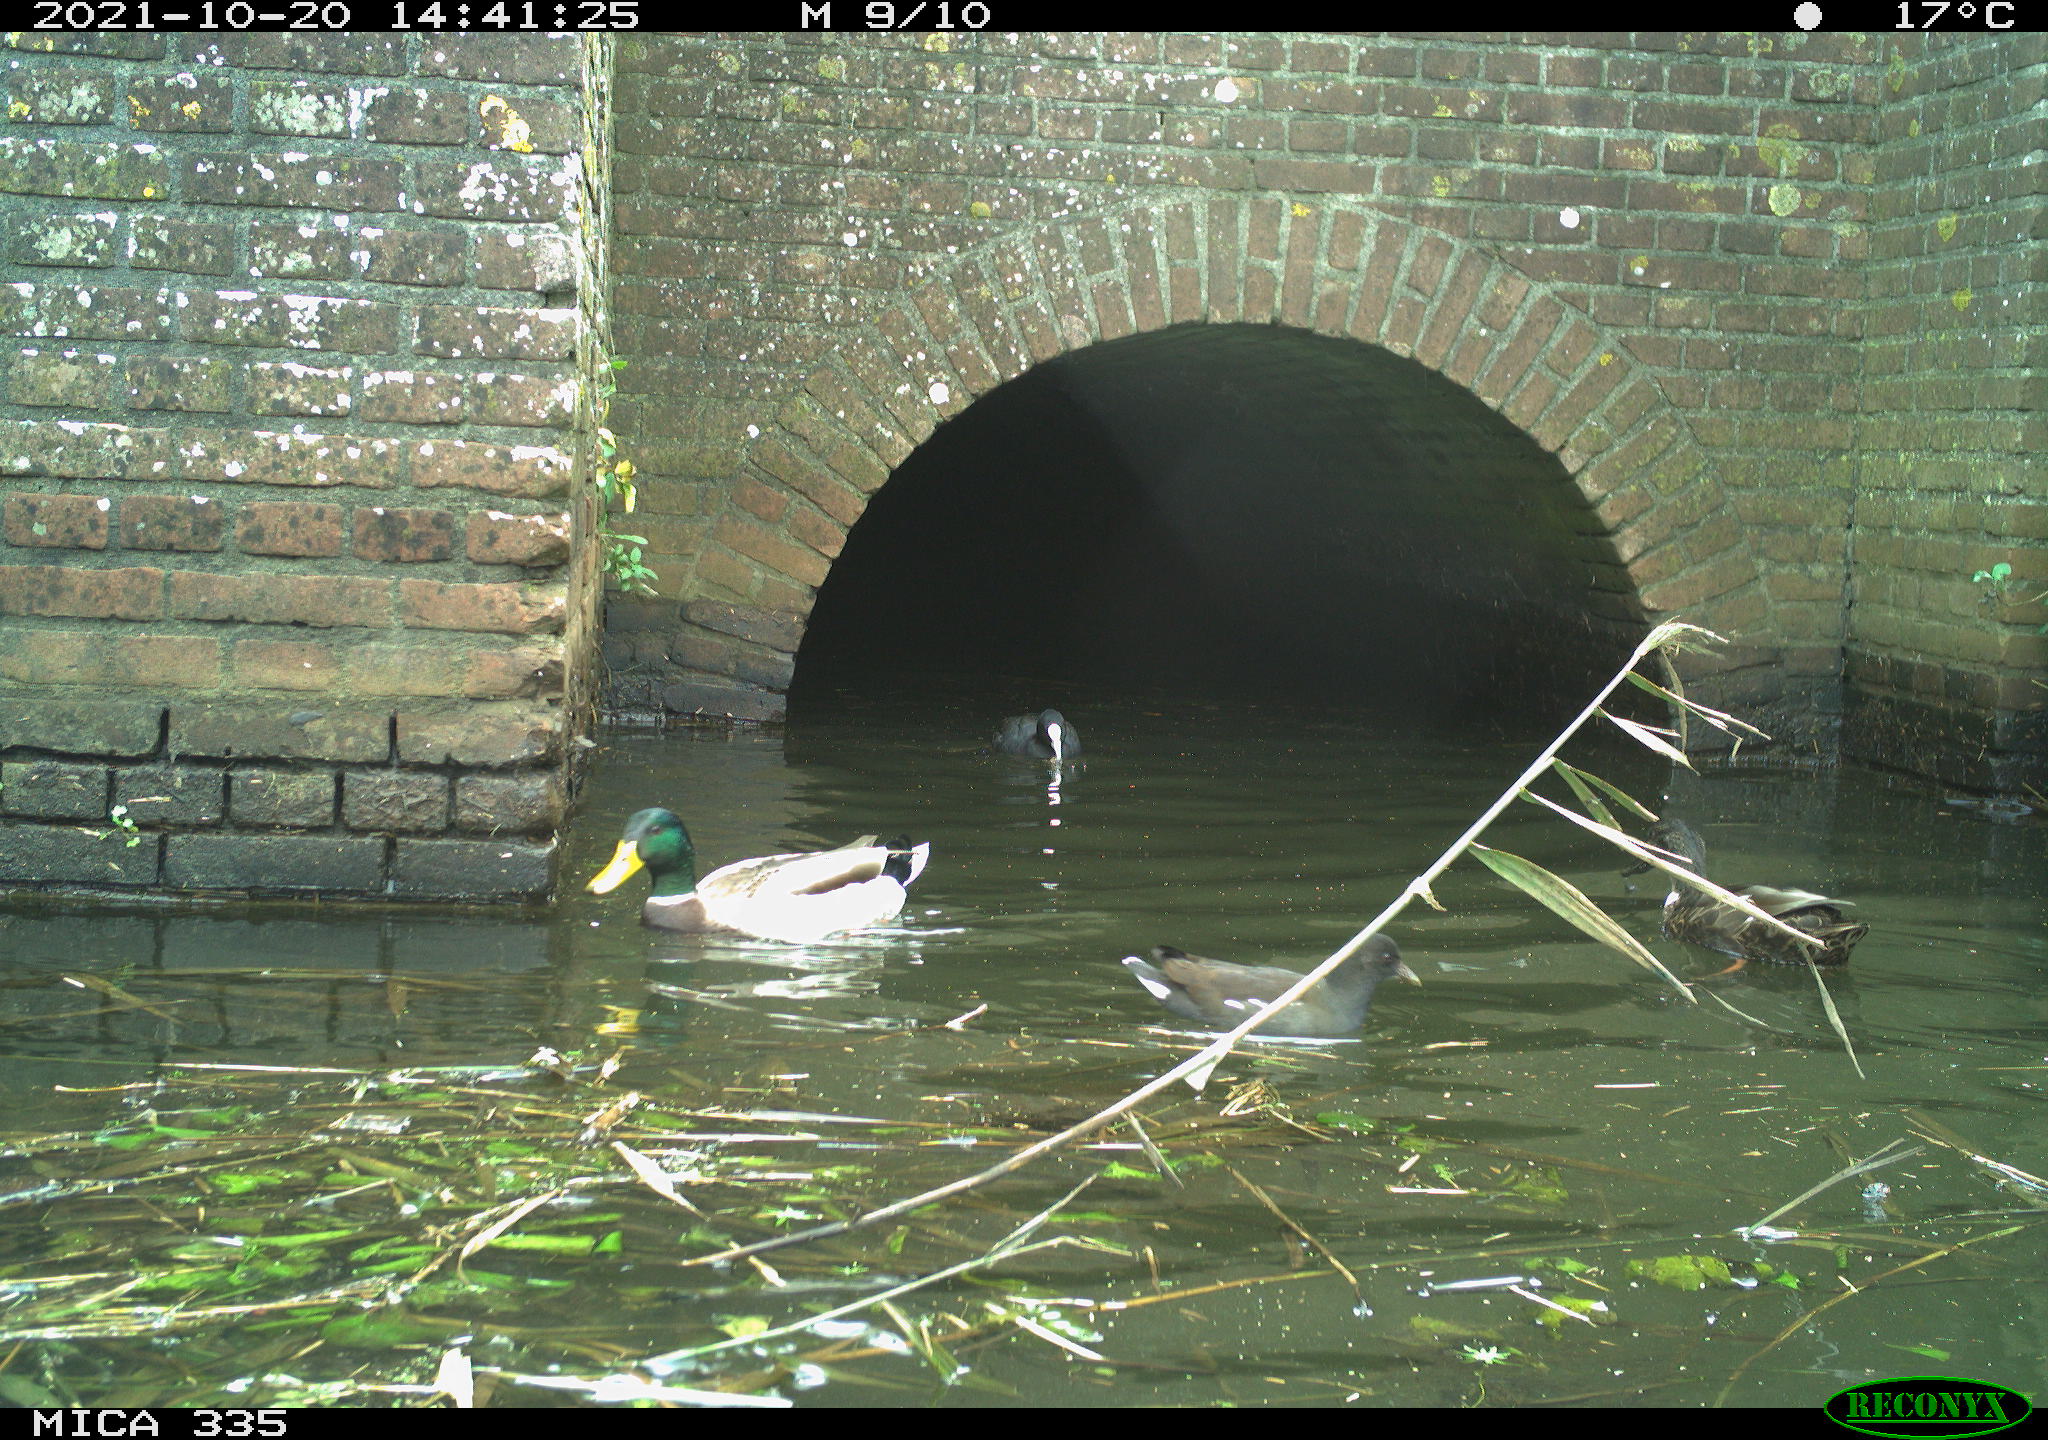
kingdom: Animalia
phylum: Chordata
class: Aves
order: Gruiformes
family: Rallidae
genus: Gallinula
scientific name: Gallinula chloropus
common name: Common moorhen
